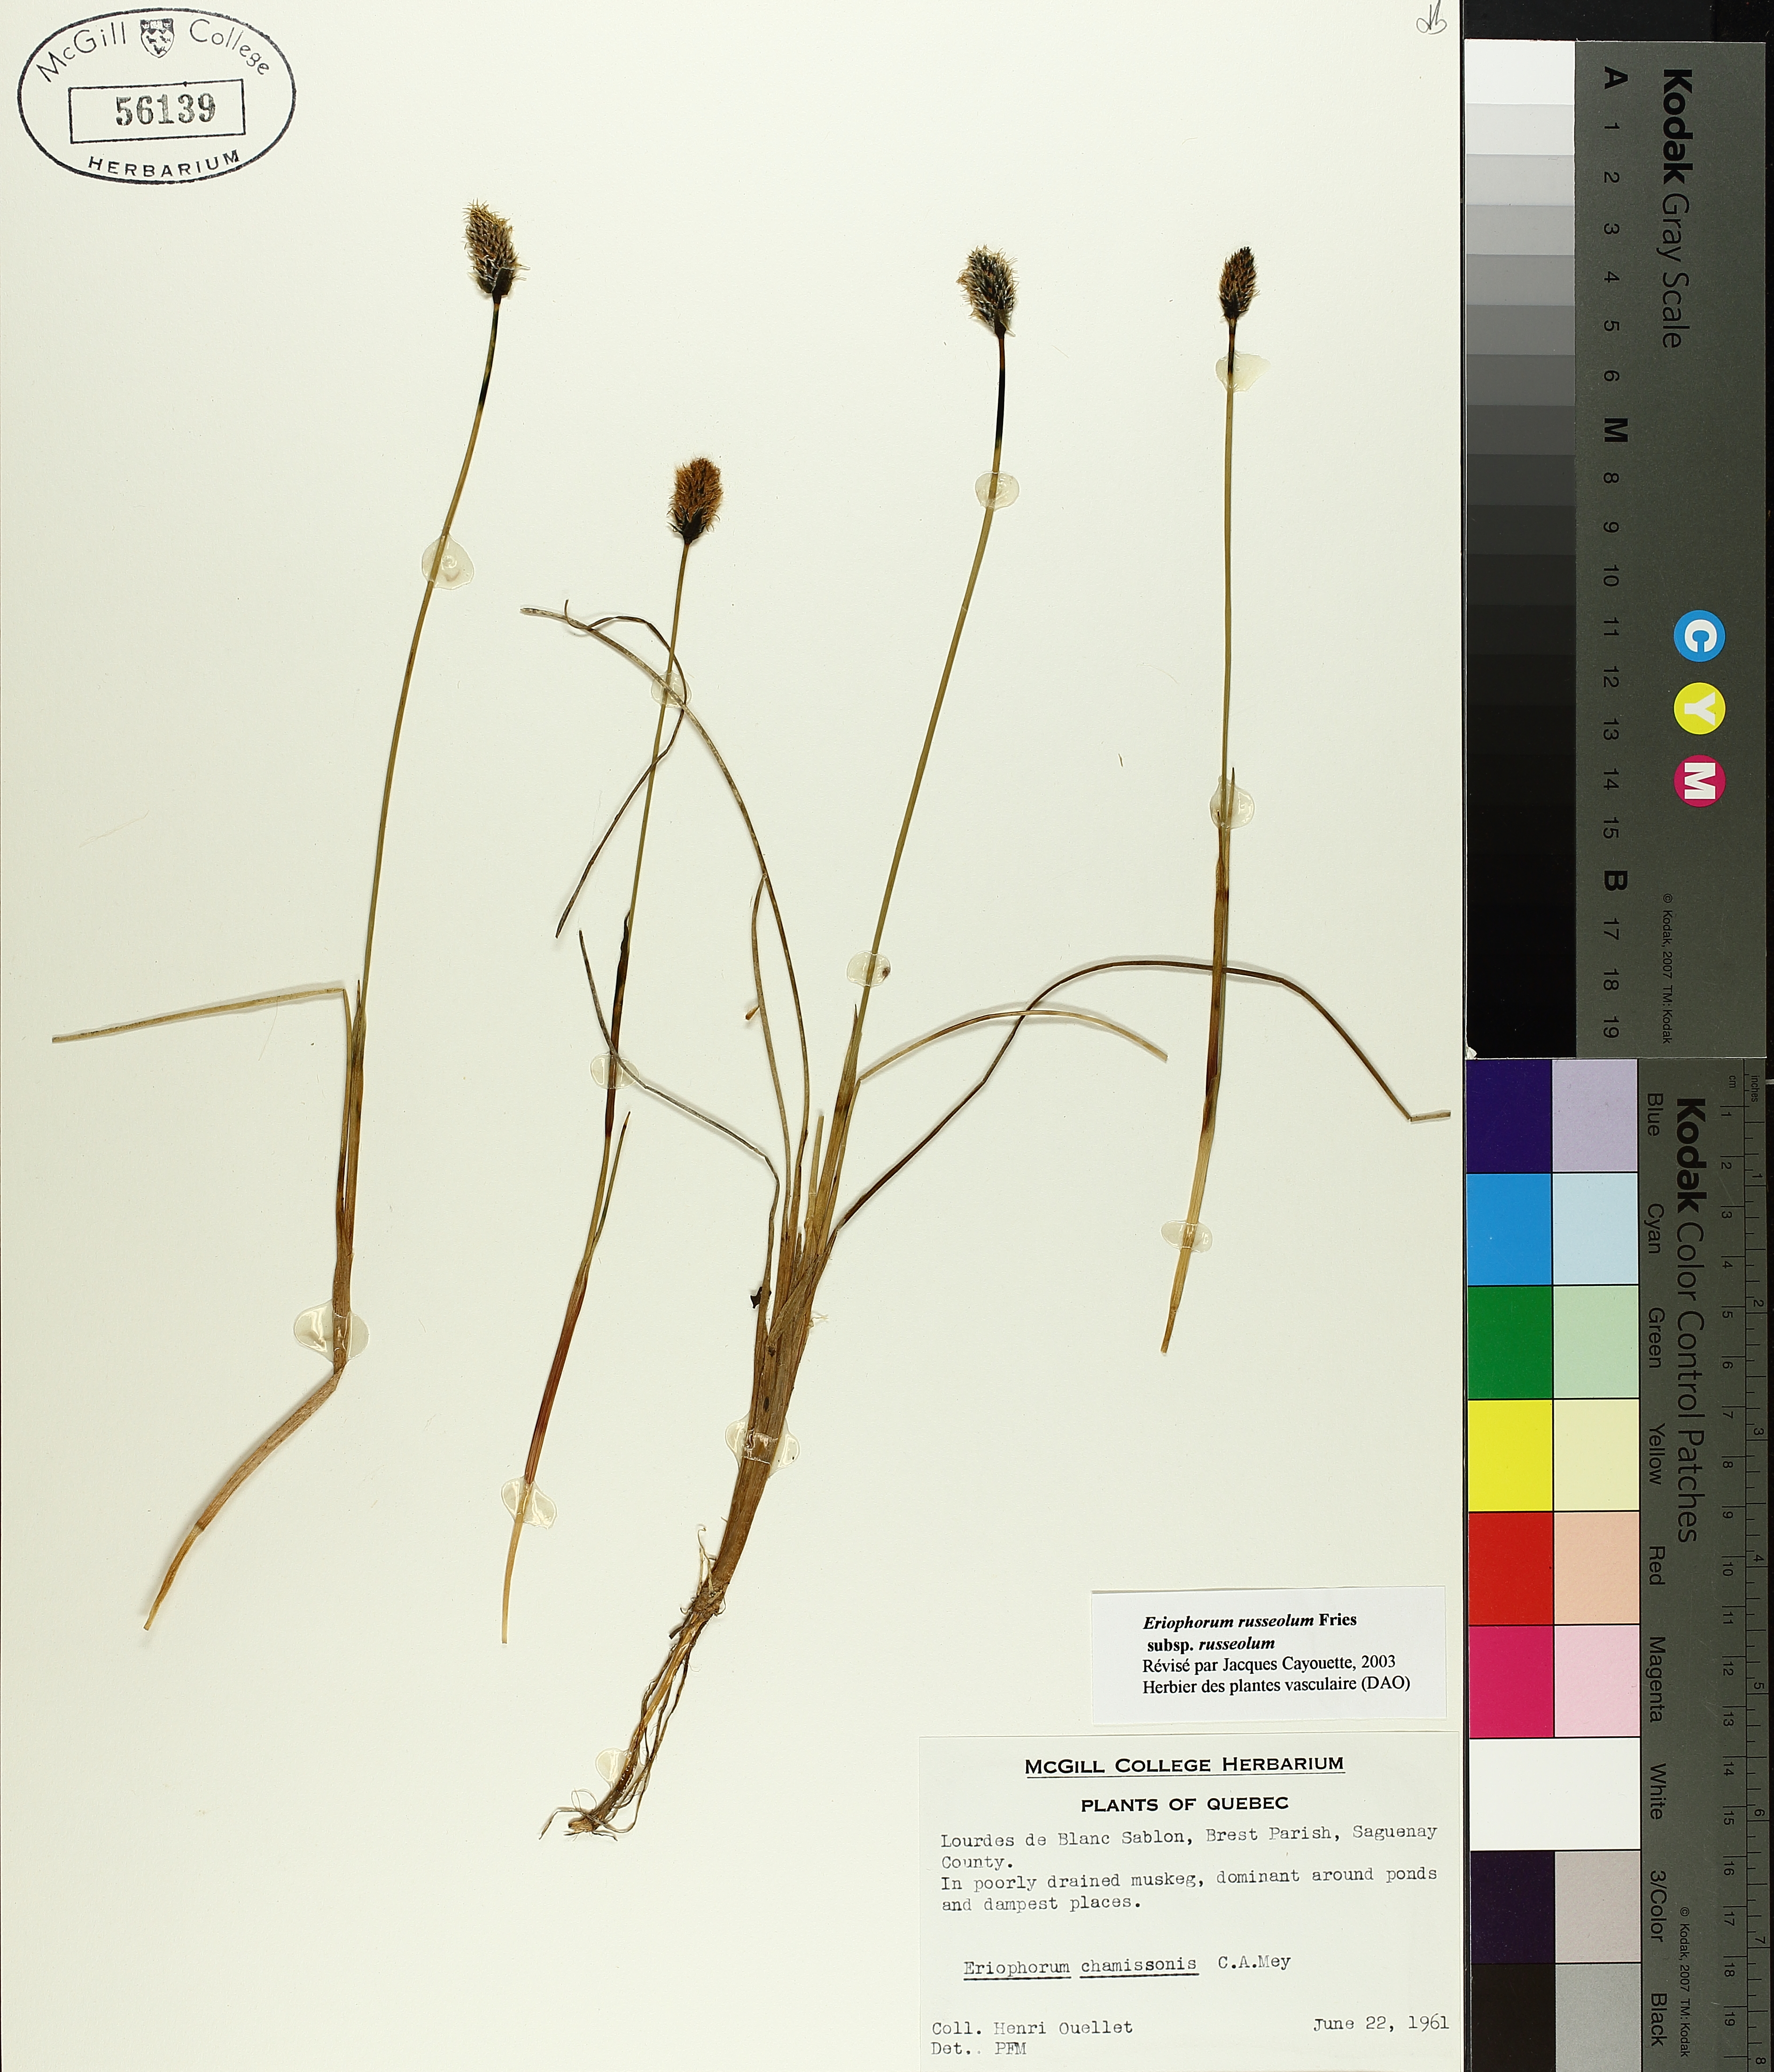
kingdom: Plantae
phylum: Tracheophyta
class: Liliopsida
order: Poales
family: Cyperaceae
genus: Eriophorum
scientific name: Eriophorum chamissonis
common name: Chamisso's cottongrass
